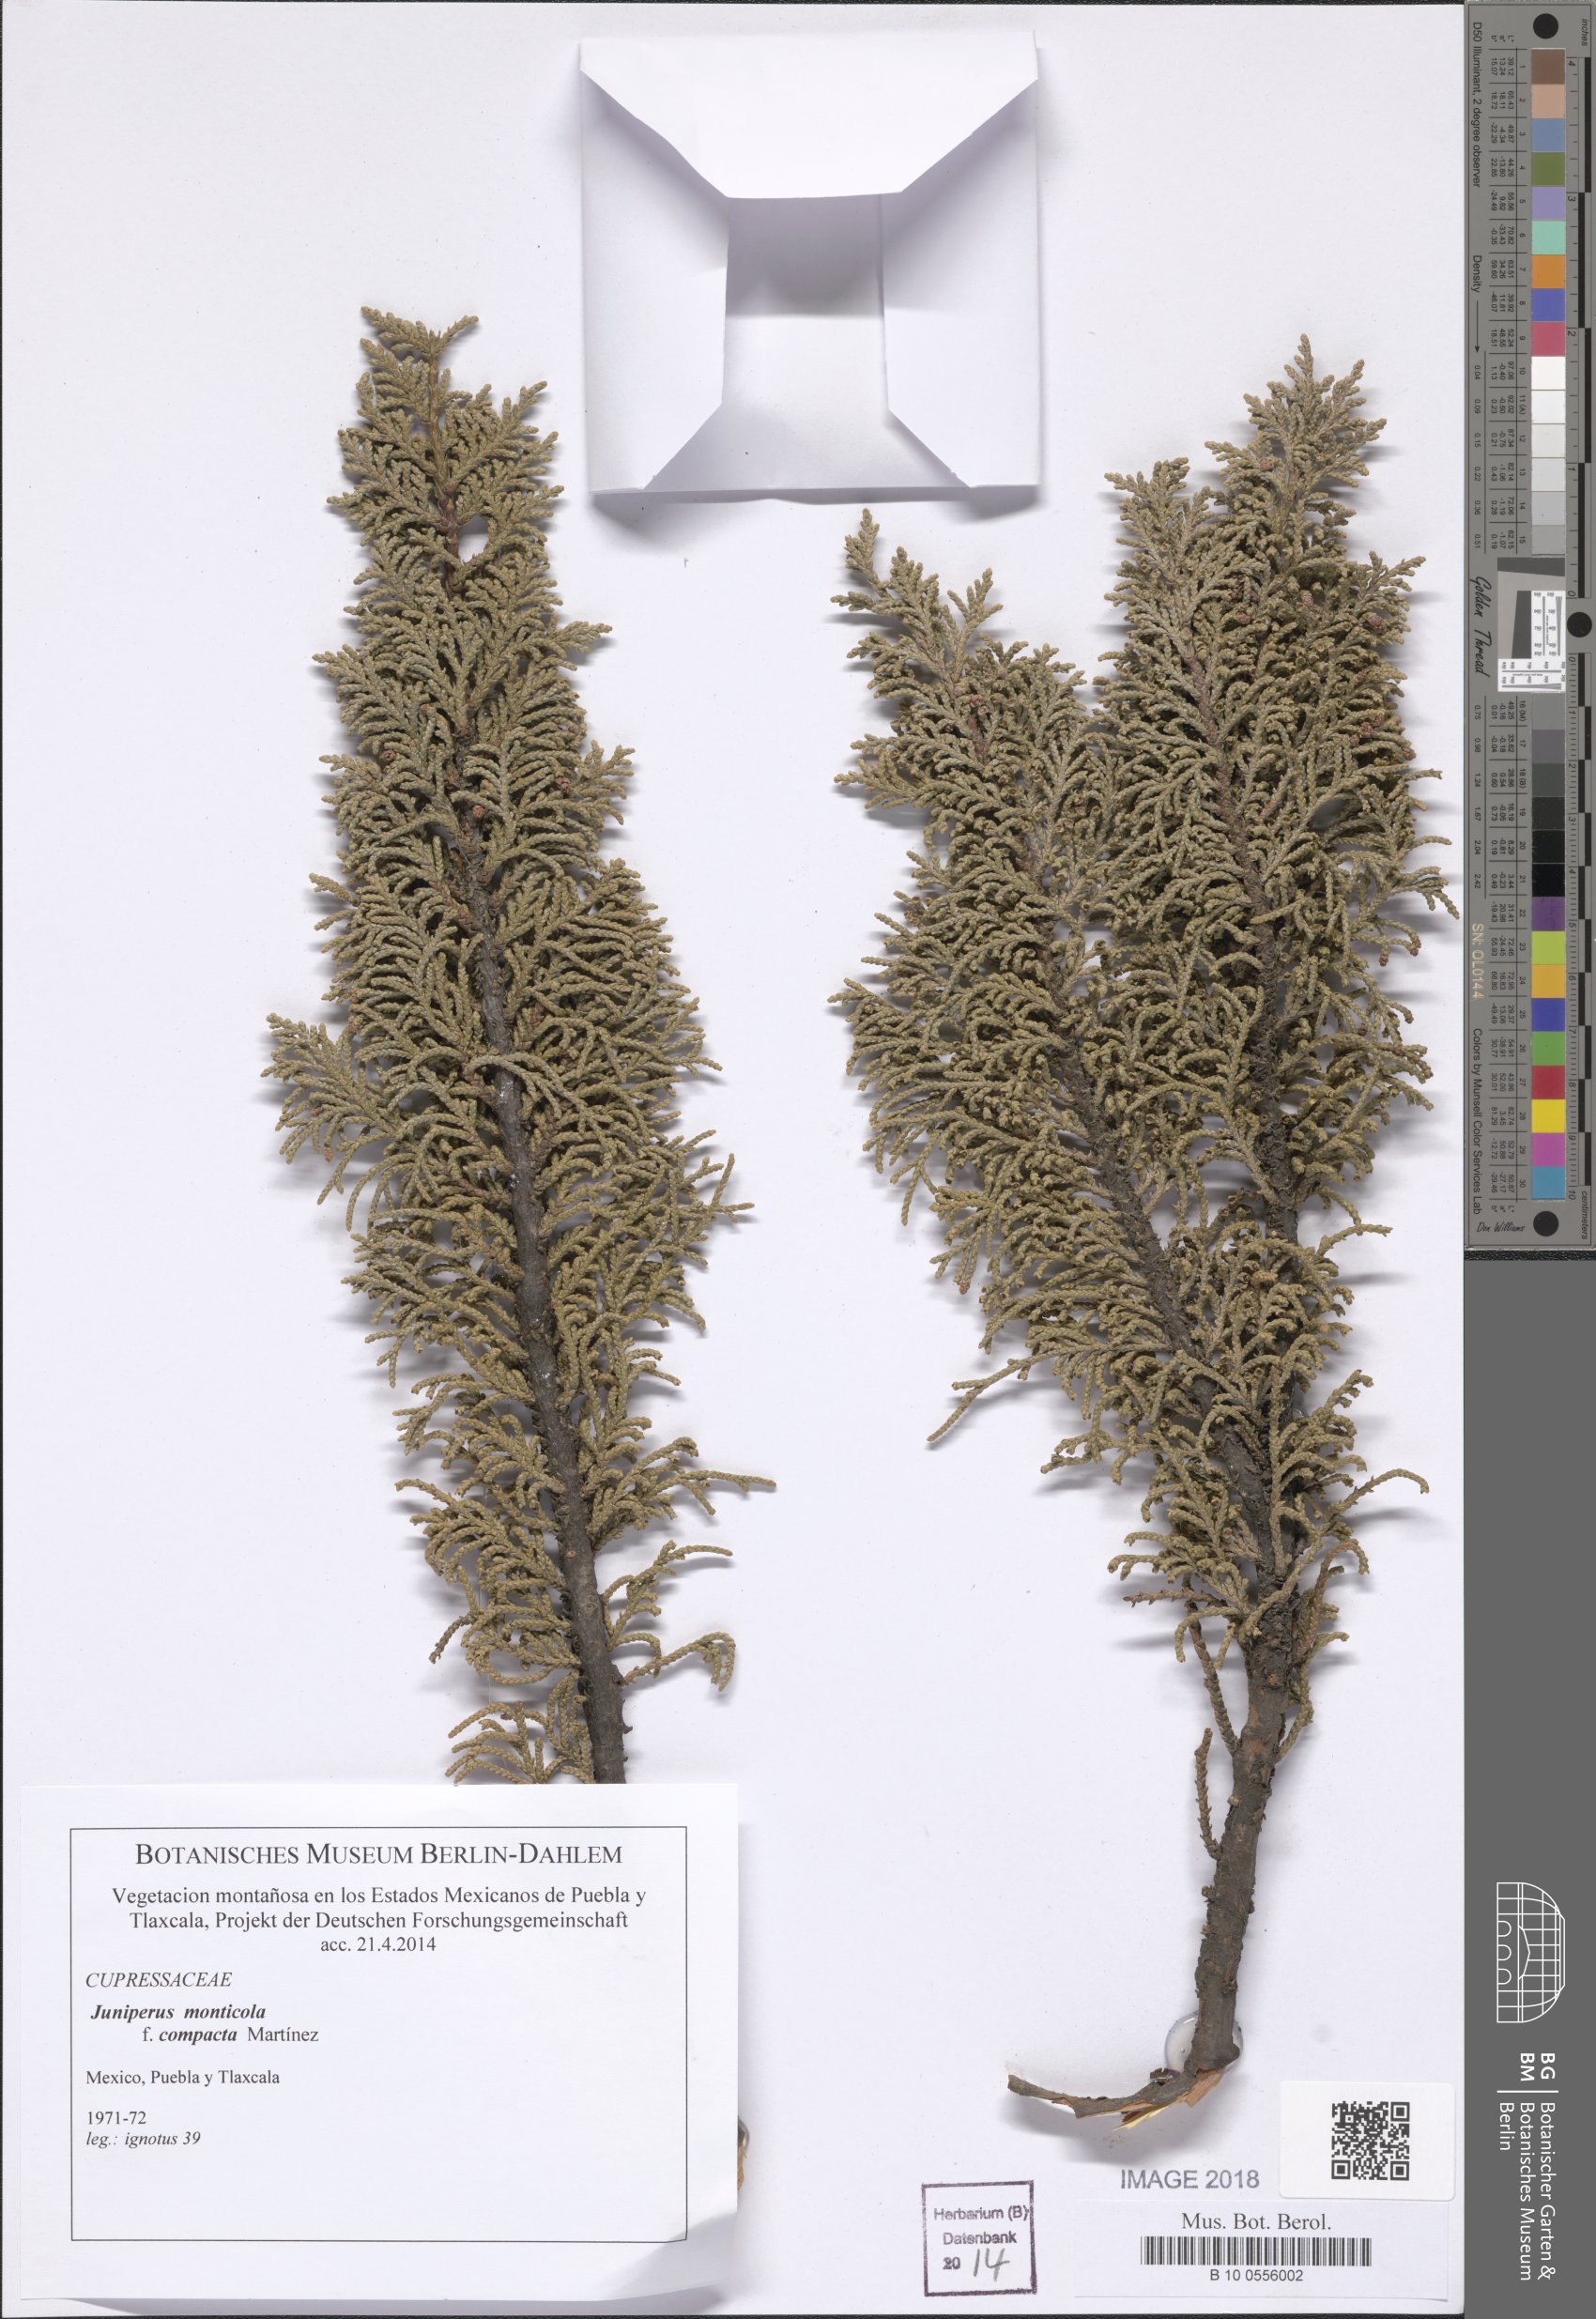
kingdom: Plantae
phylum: Tracheophyta
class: Pinopsida
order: Pinales
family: Cupressaceae
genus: Juniperus
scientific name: Juniperus monticola
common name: Mexican juniper
